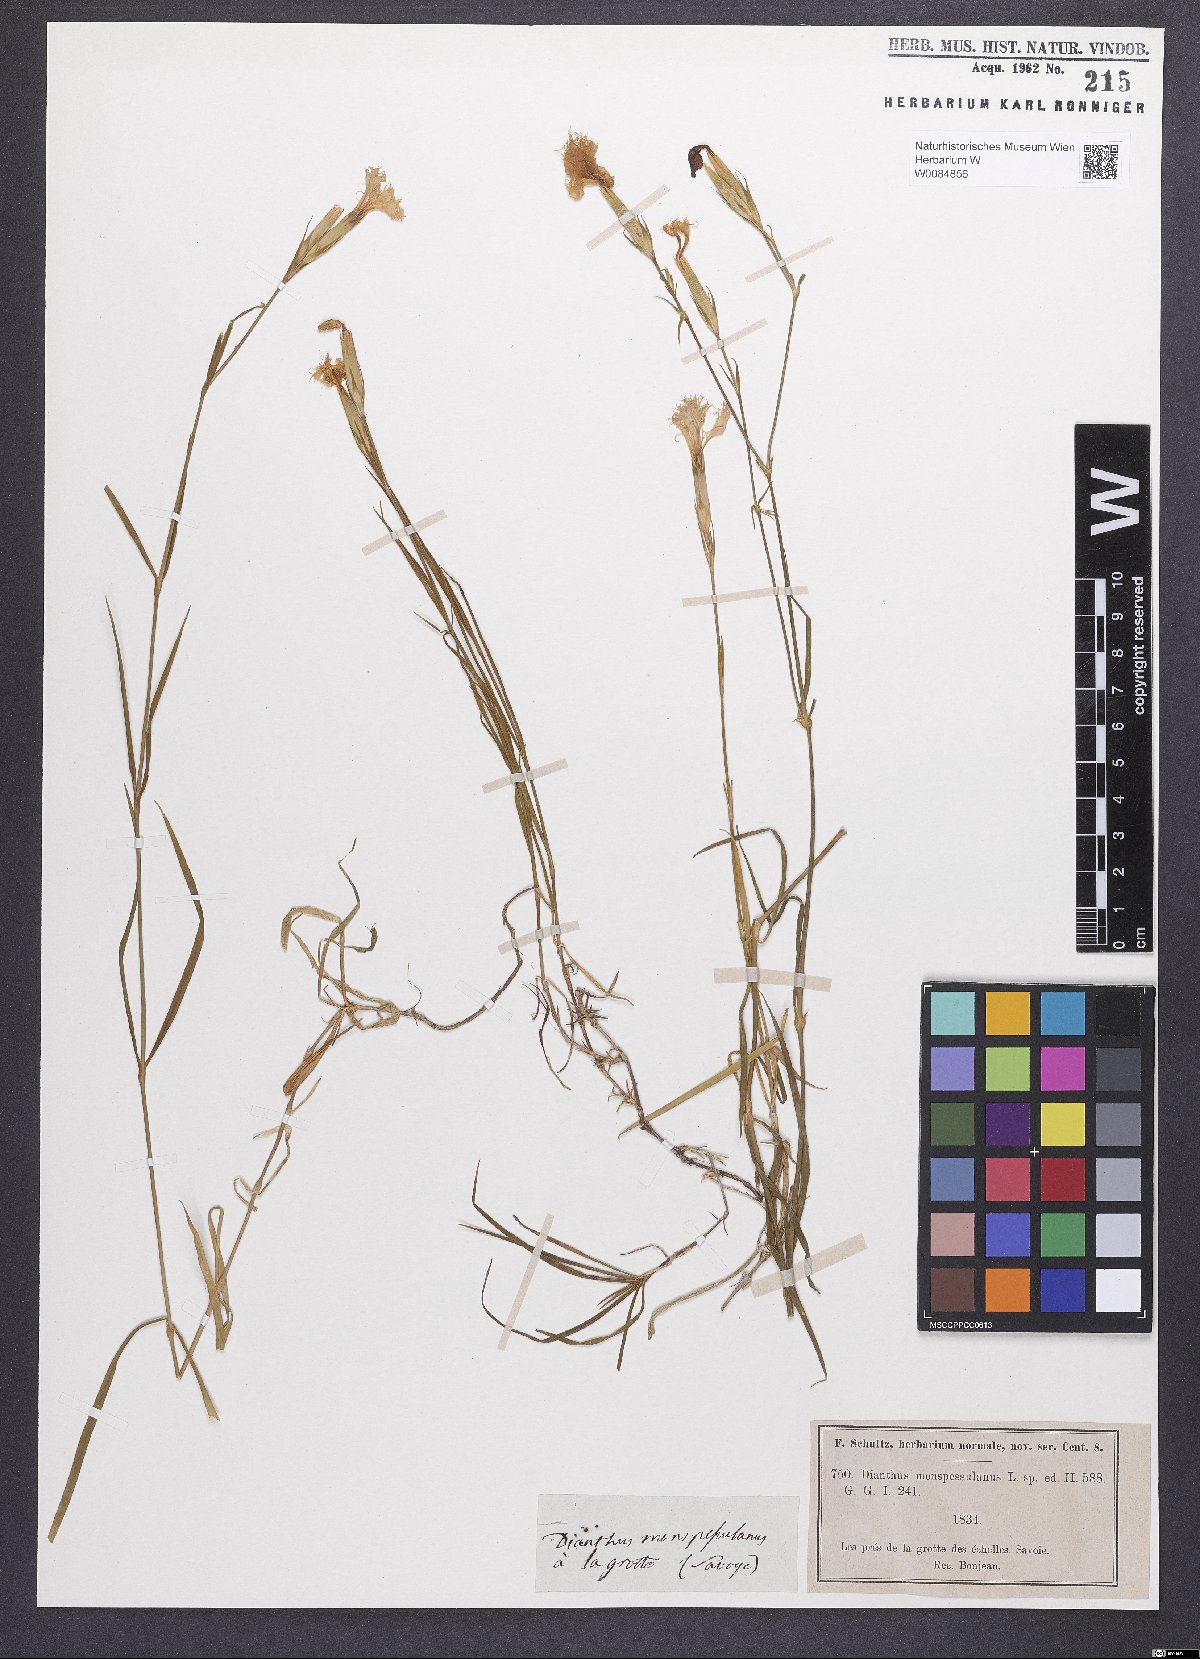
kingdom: Plantae
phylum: Tracheophyta
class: Magnoliopsida
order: Caryophyllales
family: Caryophyllaceae
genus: Dianthus
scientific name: Dianthus hyssopifolius
